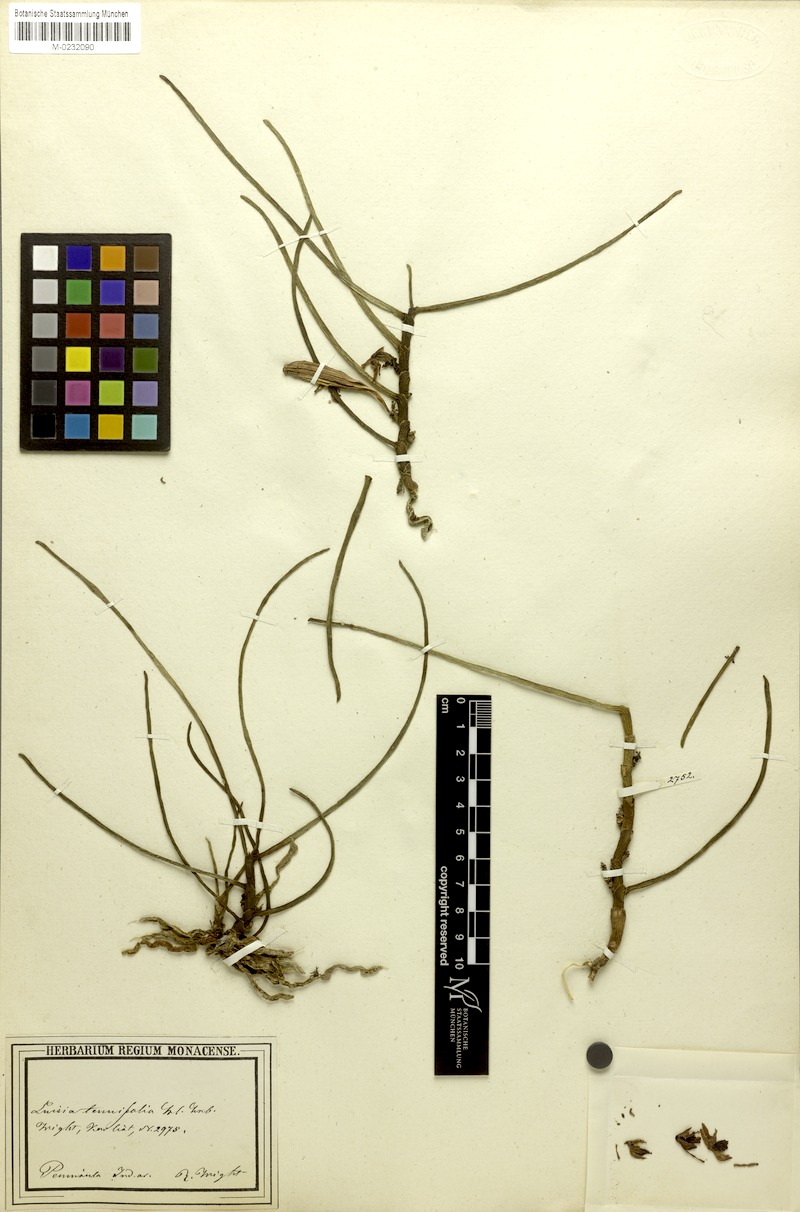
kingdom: Plantae
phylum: Tracheophyta
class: Liliopsida
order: Asparagales
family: Orchidaceae
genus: Luisia
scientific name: Luisia tenuifolia
